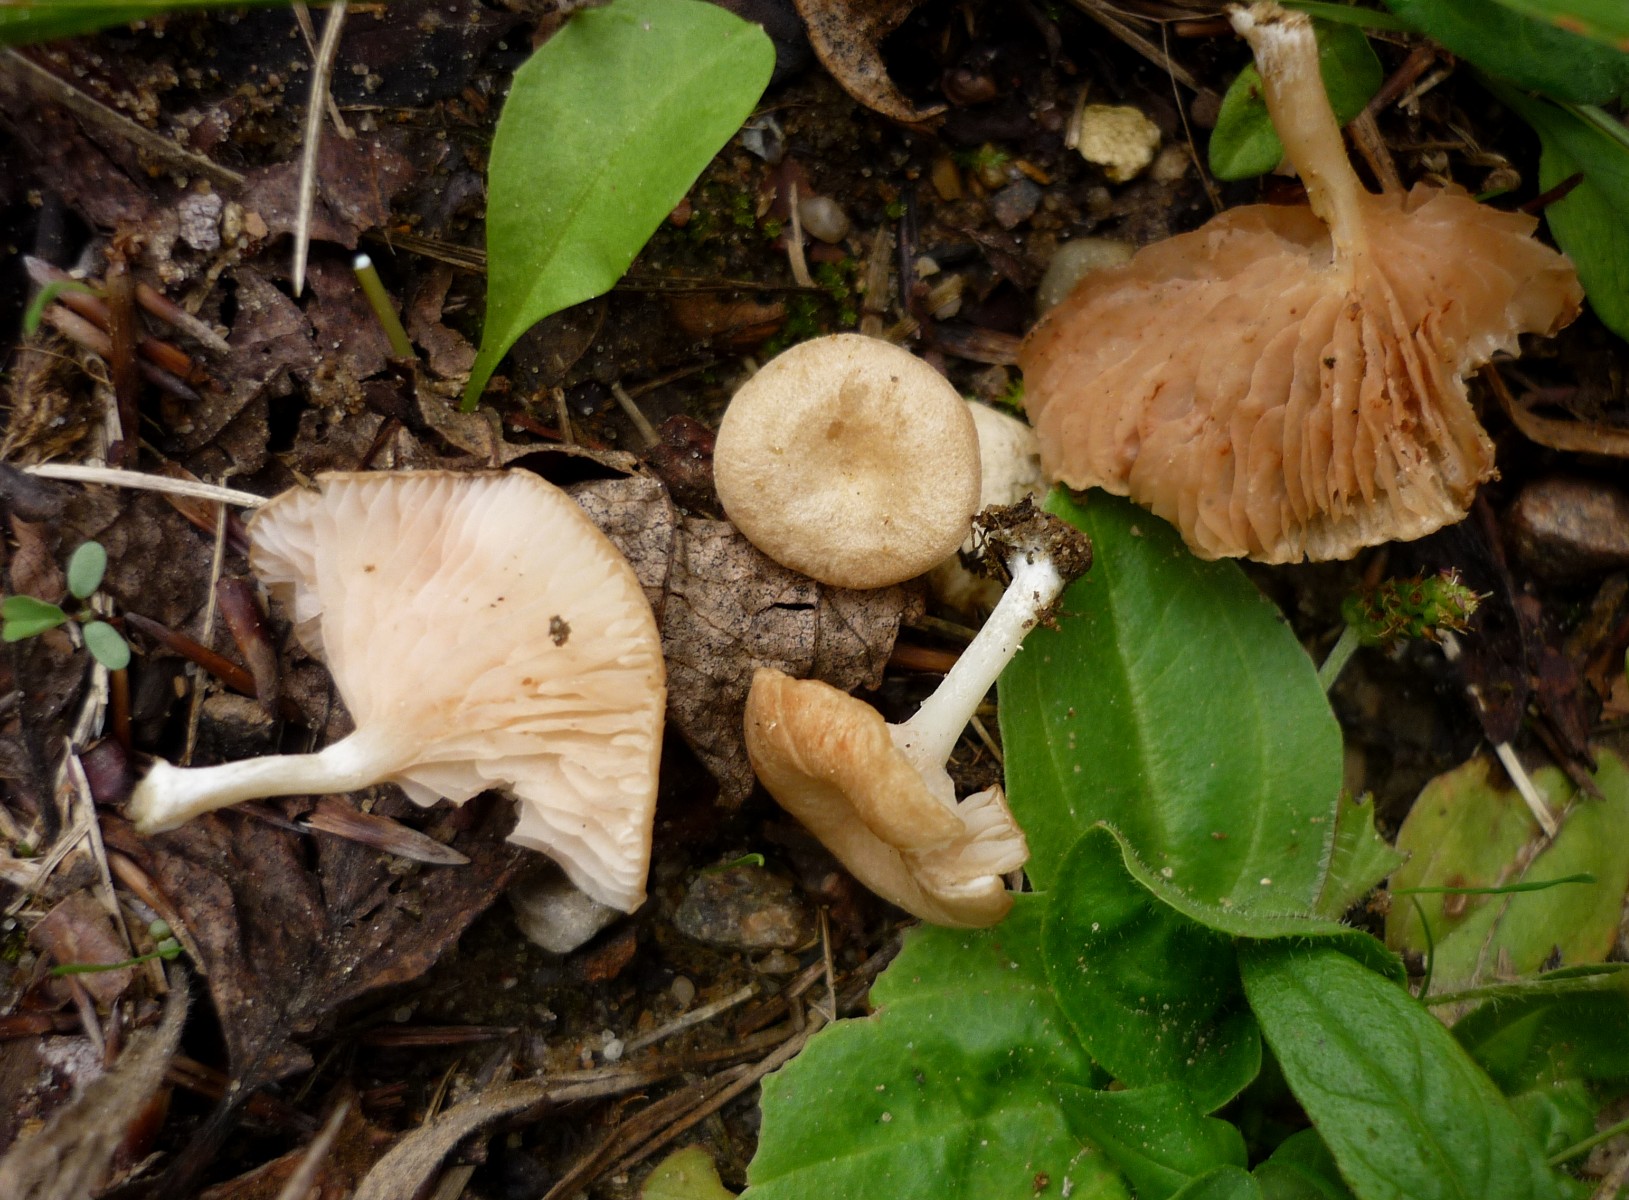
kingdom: Fungi
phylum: Basidiomycota
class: Agaricomycetes
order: Agaricales
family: Entolomataceae
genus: Entoloma
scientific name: Entoloma neglectum
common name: bleg rødblad
